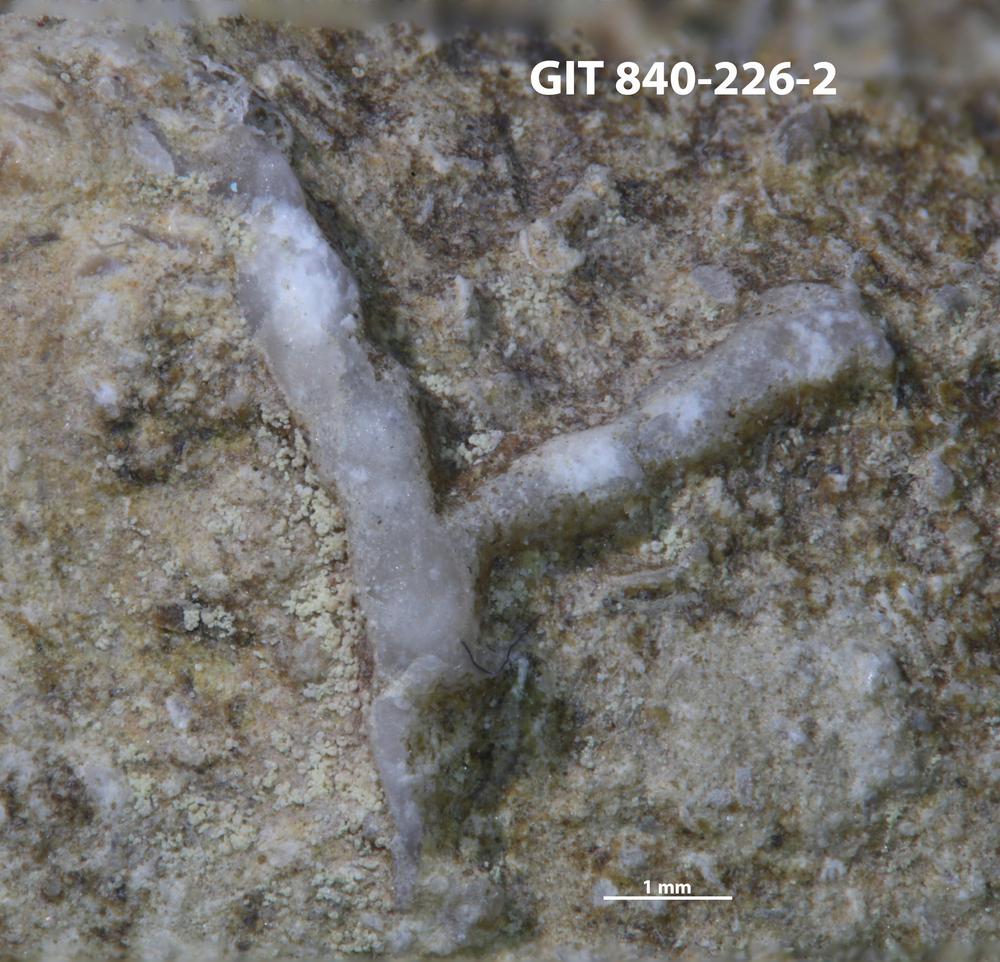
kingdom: Animalia
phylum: Bryozoa
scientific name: Bryozoa
